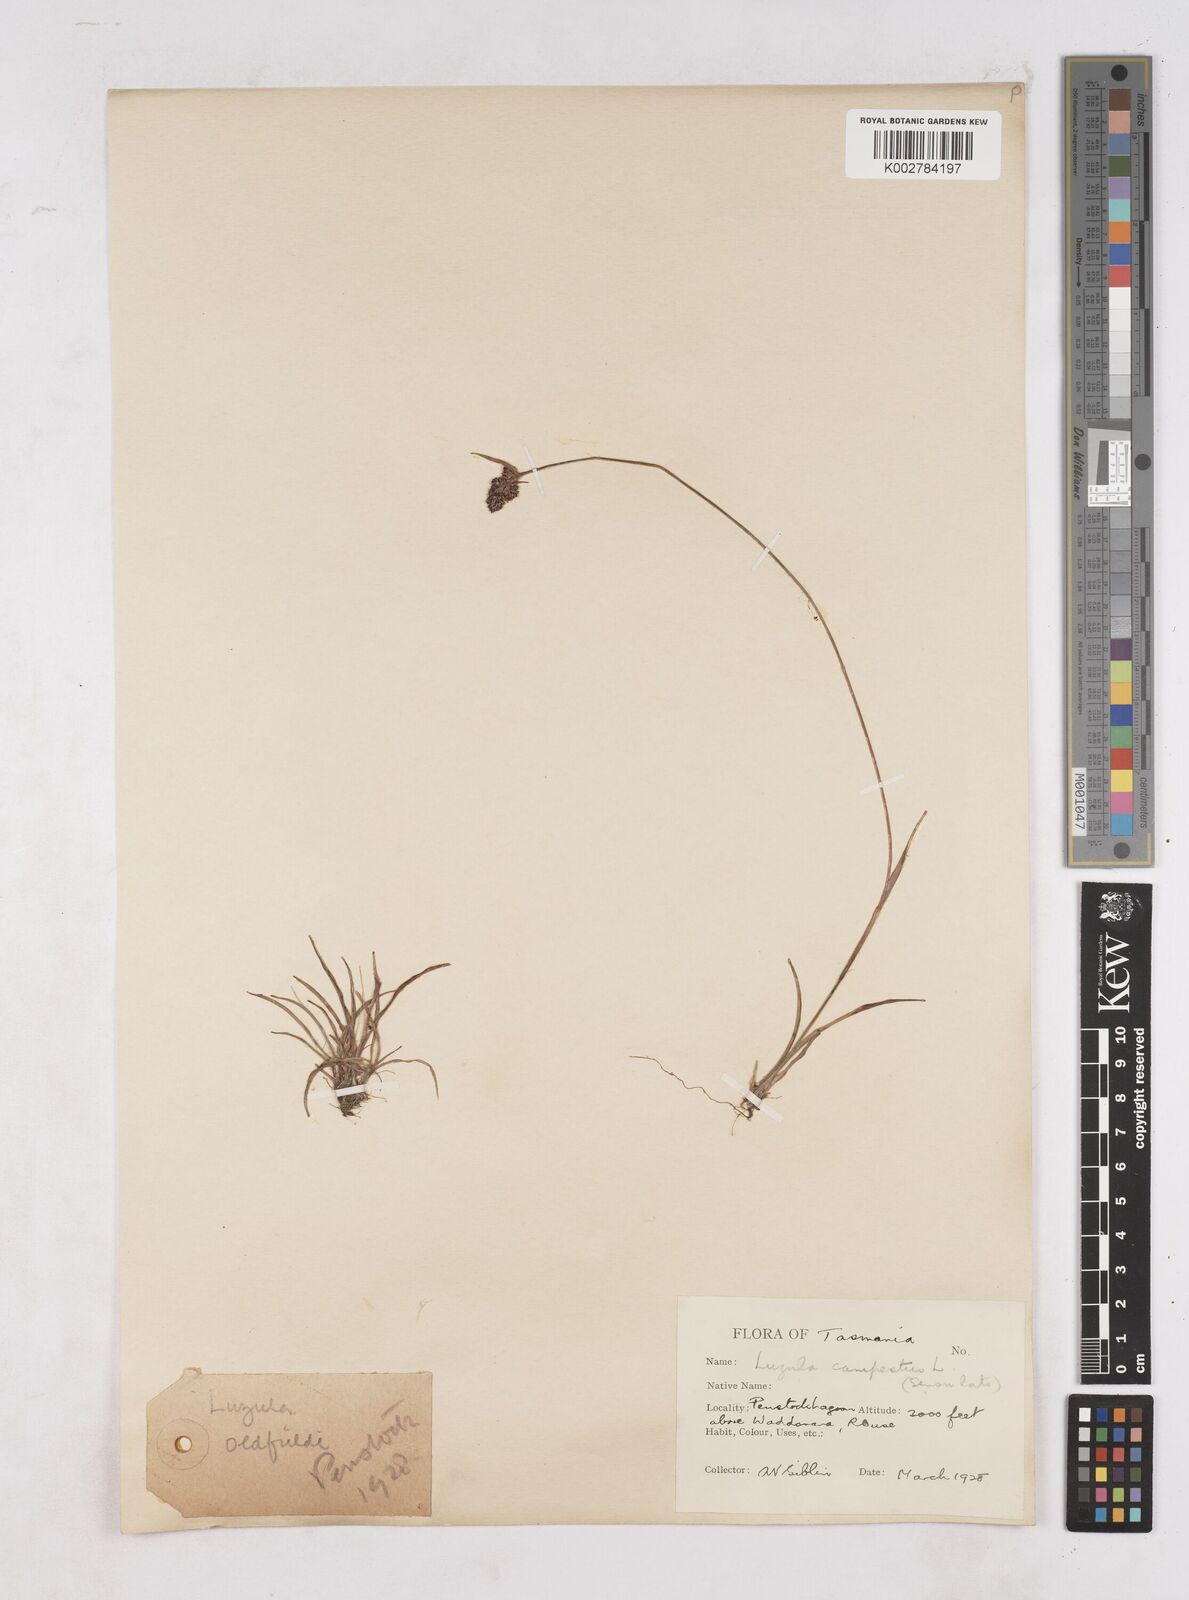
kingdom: Plantae
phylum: Tracheophyta
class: Liliopsida
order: Poales
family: Juncaceae
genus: Luzula
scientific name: Luzula campestris
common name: Field wood-rush
